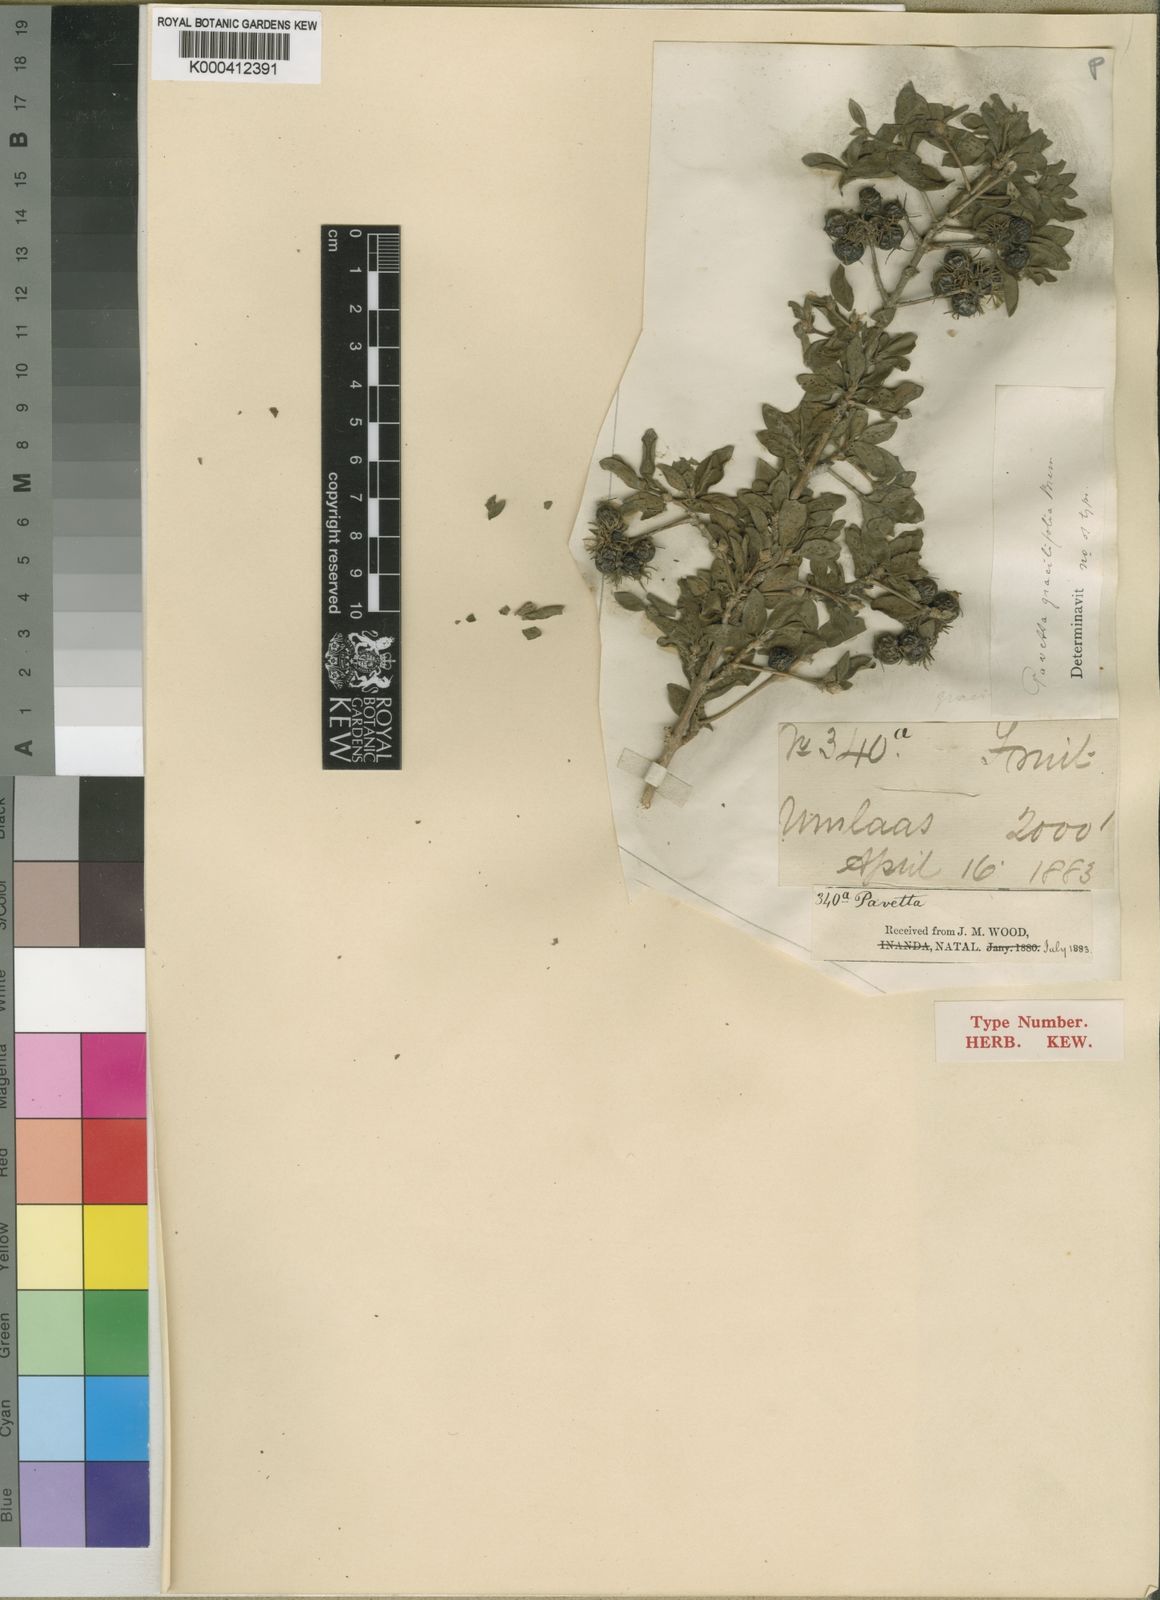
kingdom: Plantae
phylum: Tracheophyta
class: Magnoliopsida
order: Gentianales
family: Rubiaceae
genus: Pavetta
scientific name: Pavetta gracilifolia
